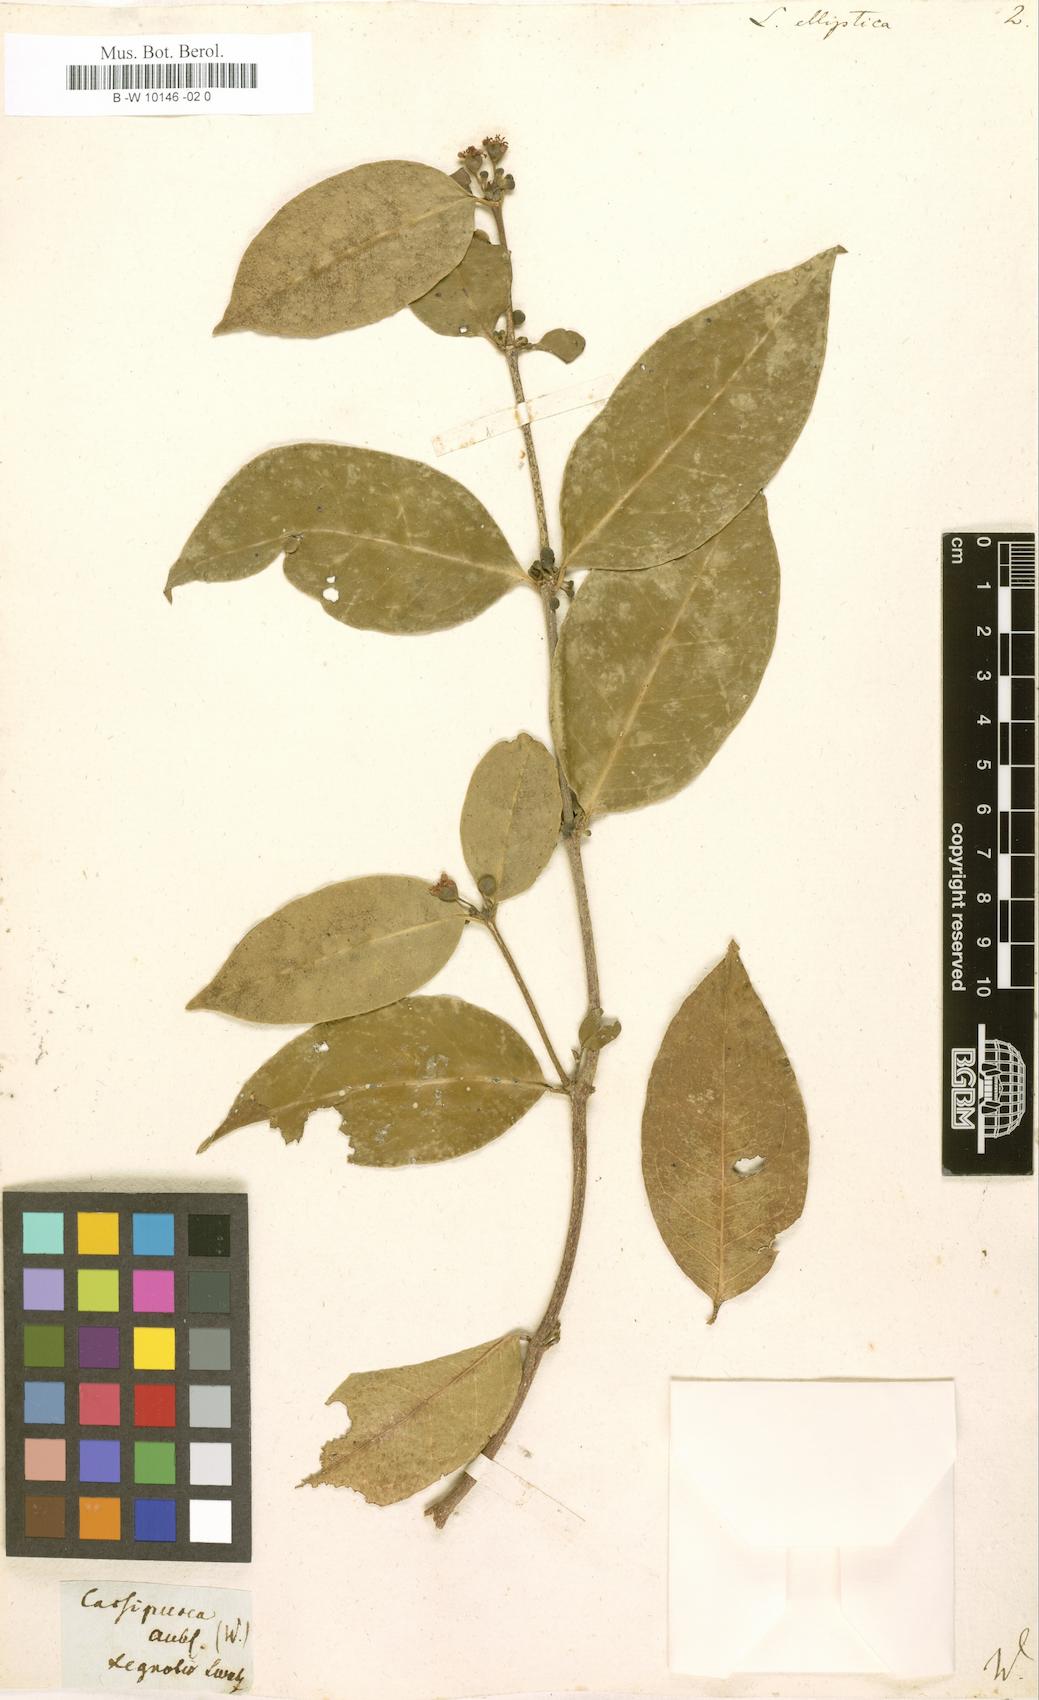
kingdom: Plantae
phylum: Tracheophyta
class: Magnoliopsida
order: Malpighiales
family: Rhizophoraceae
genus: Cassipourea
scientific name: Cassipourea elliptica
